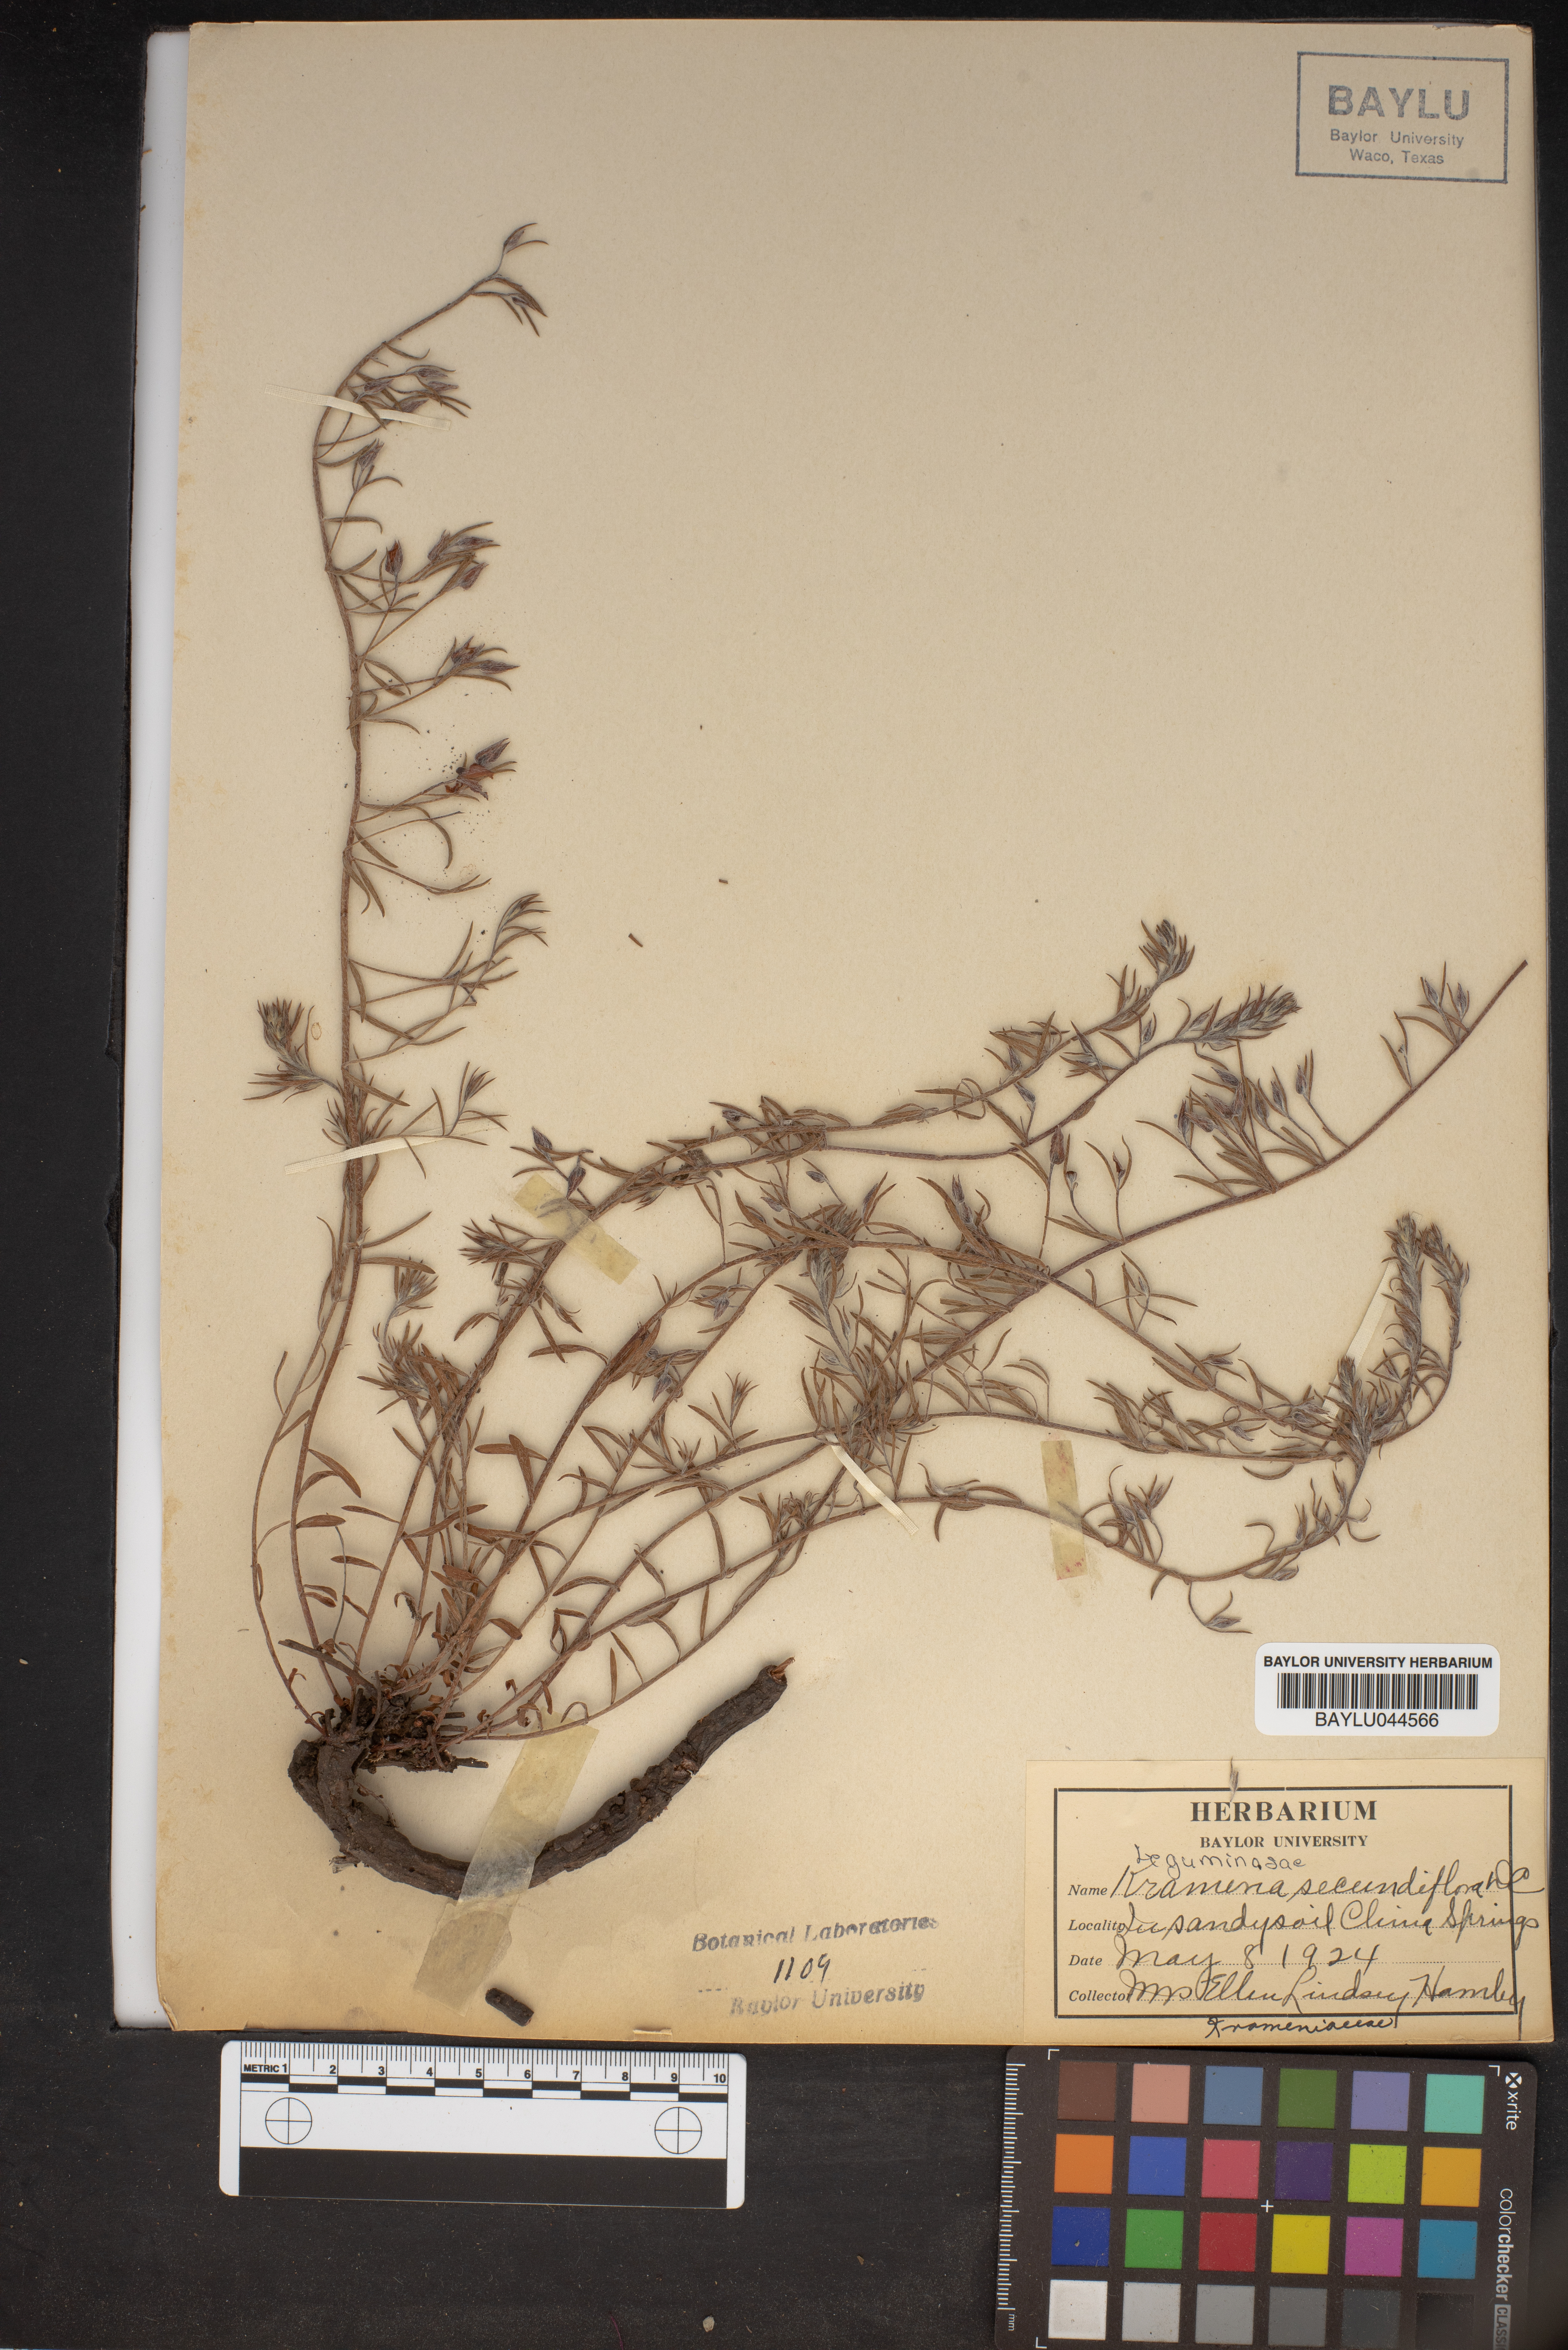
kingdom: Plantae
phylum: Tracheophyta
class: Magnoliopsida
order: Zygophyllales
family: Krameriaceae
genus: Krameria
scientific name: Krameria secundiflora
